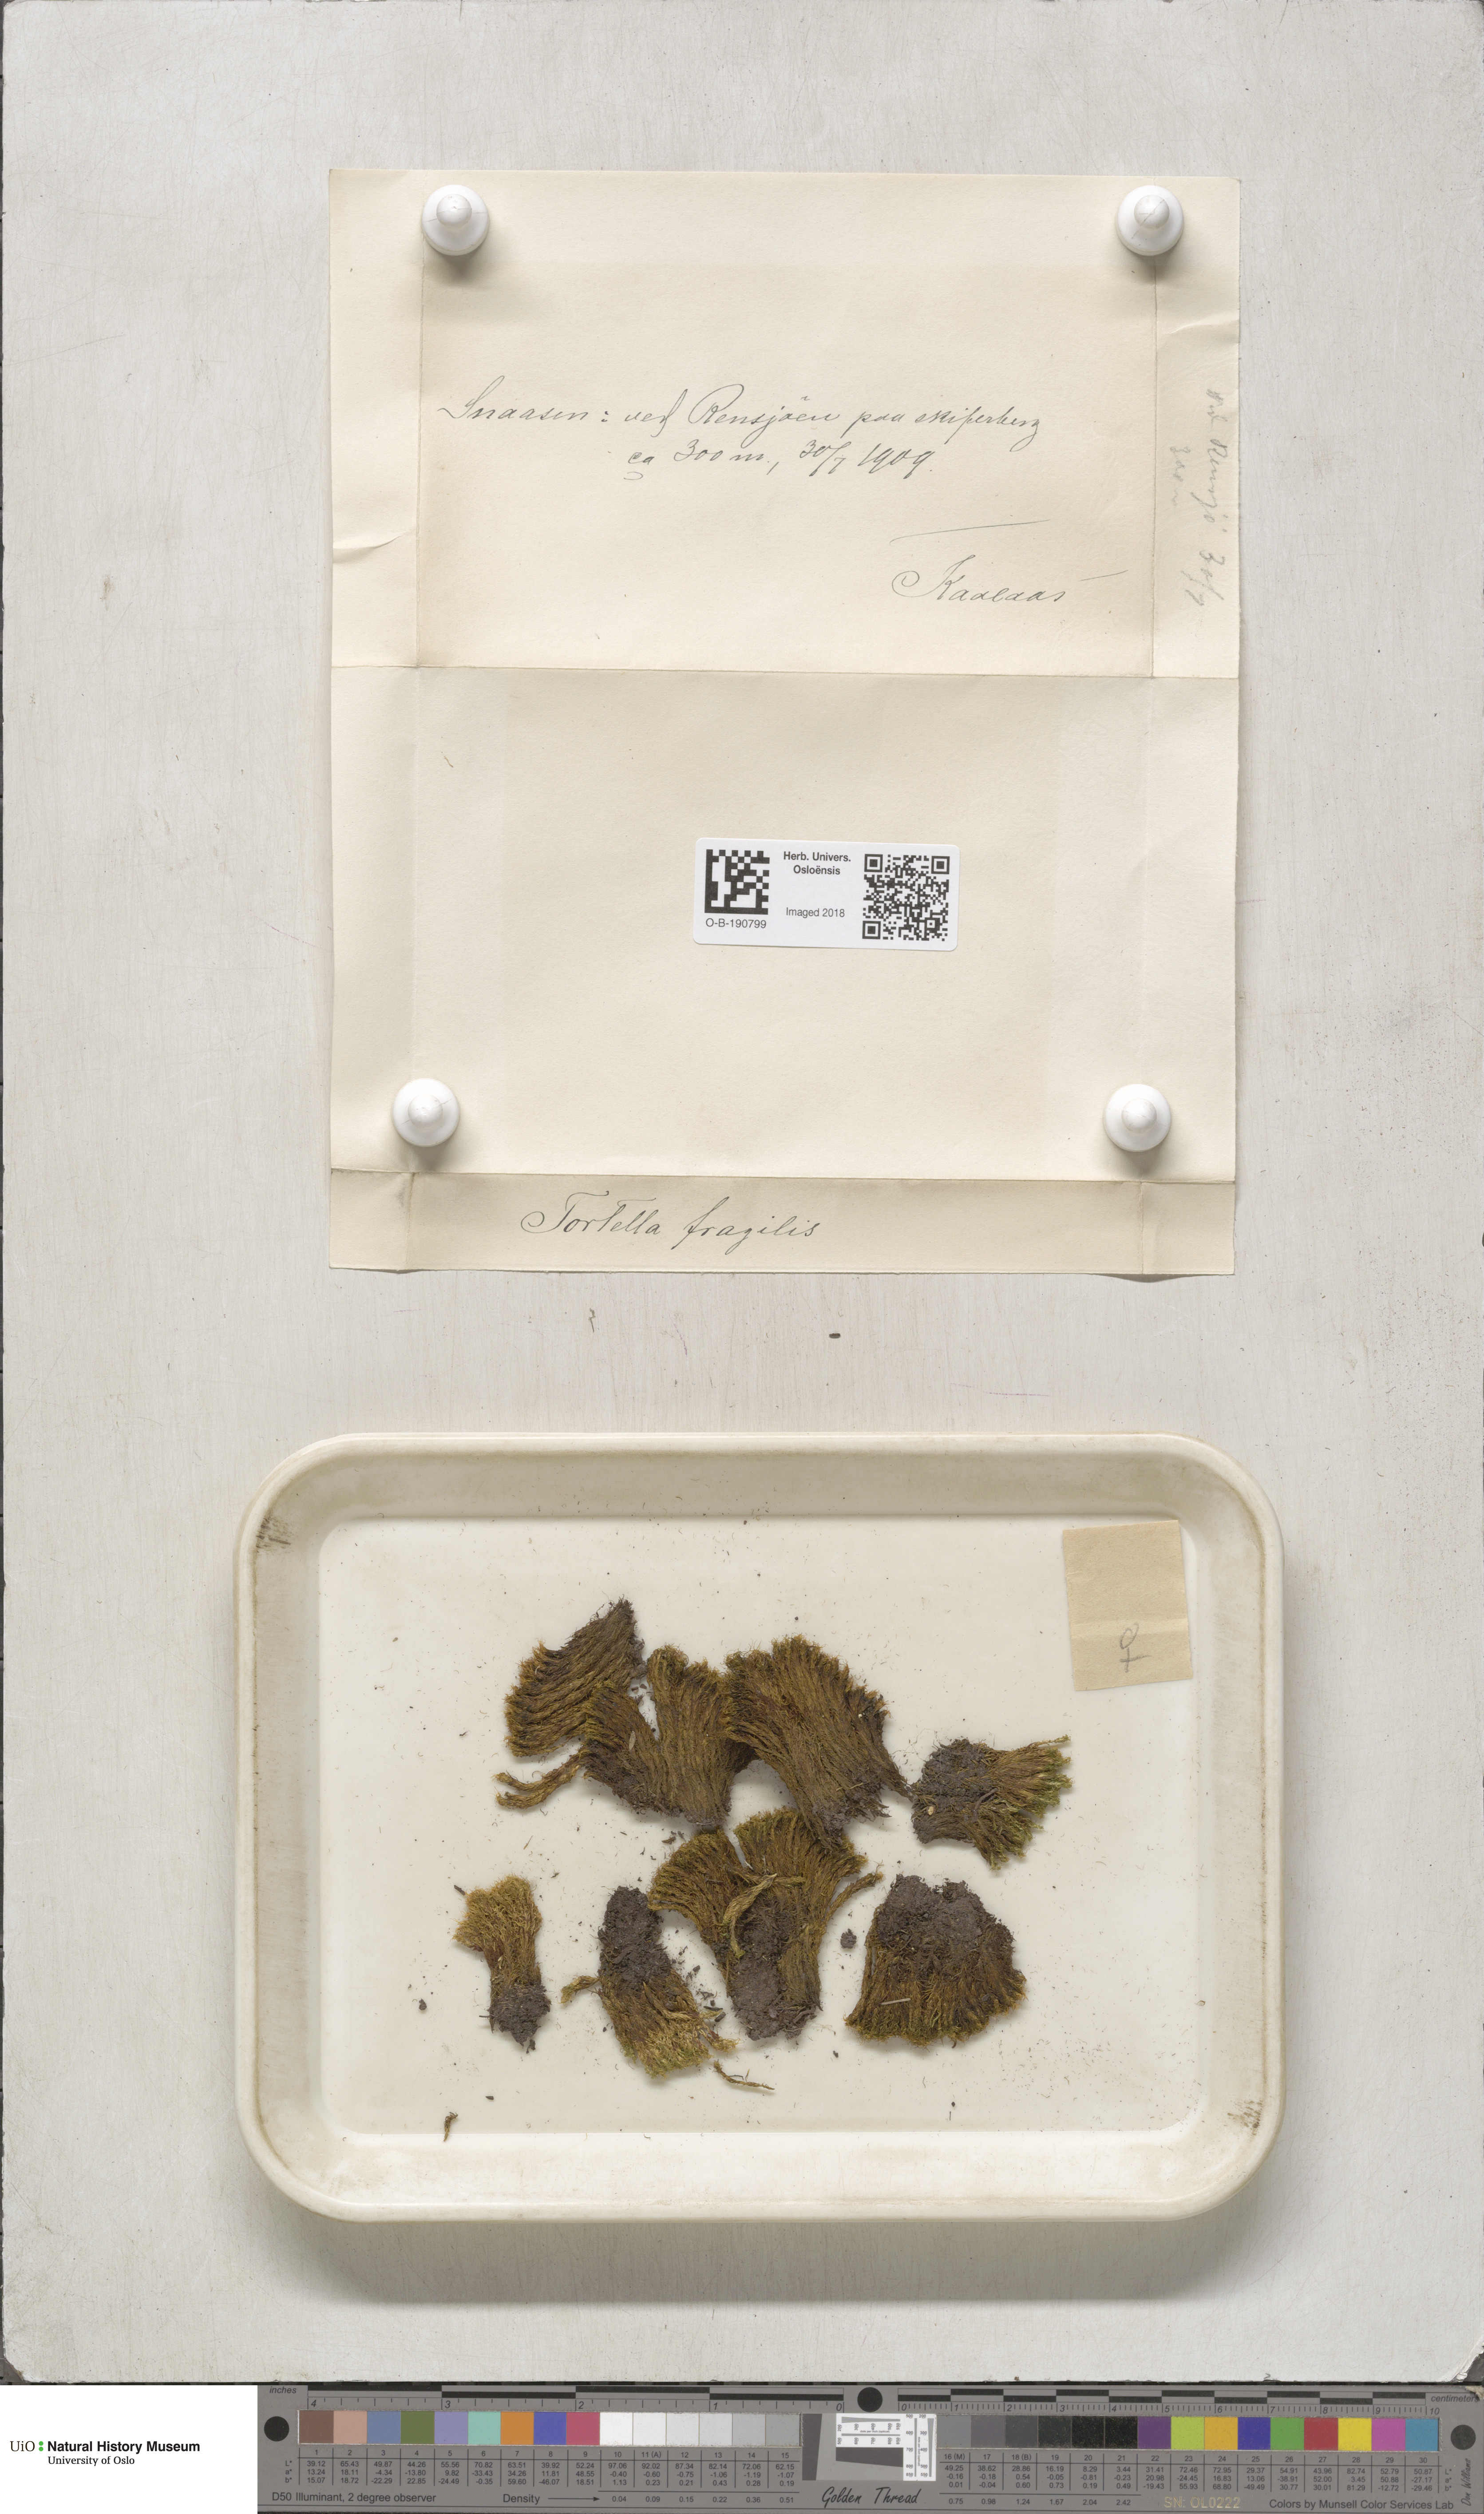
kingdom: Plantae
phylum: Bryophyta
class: Bryopsida
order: Pottiales
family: Pottiaceae
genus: Tortella
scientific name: Tortella fragilis
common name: Fragile twisted moss
